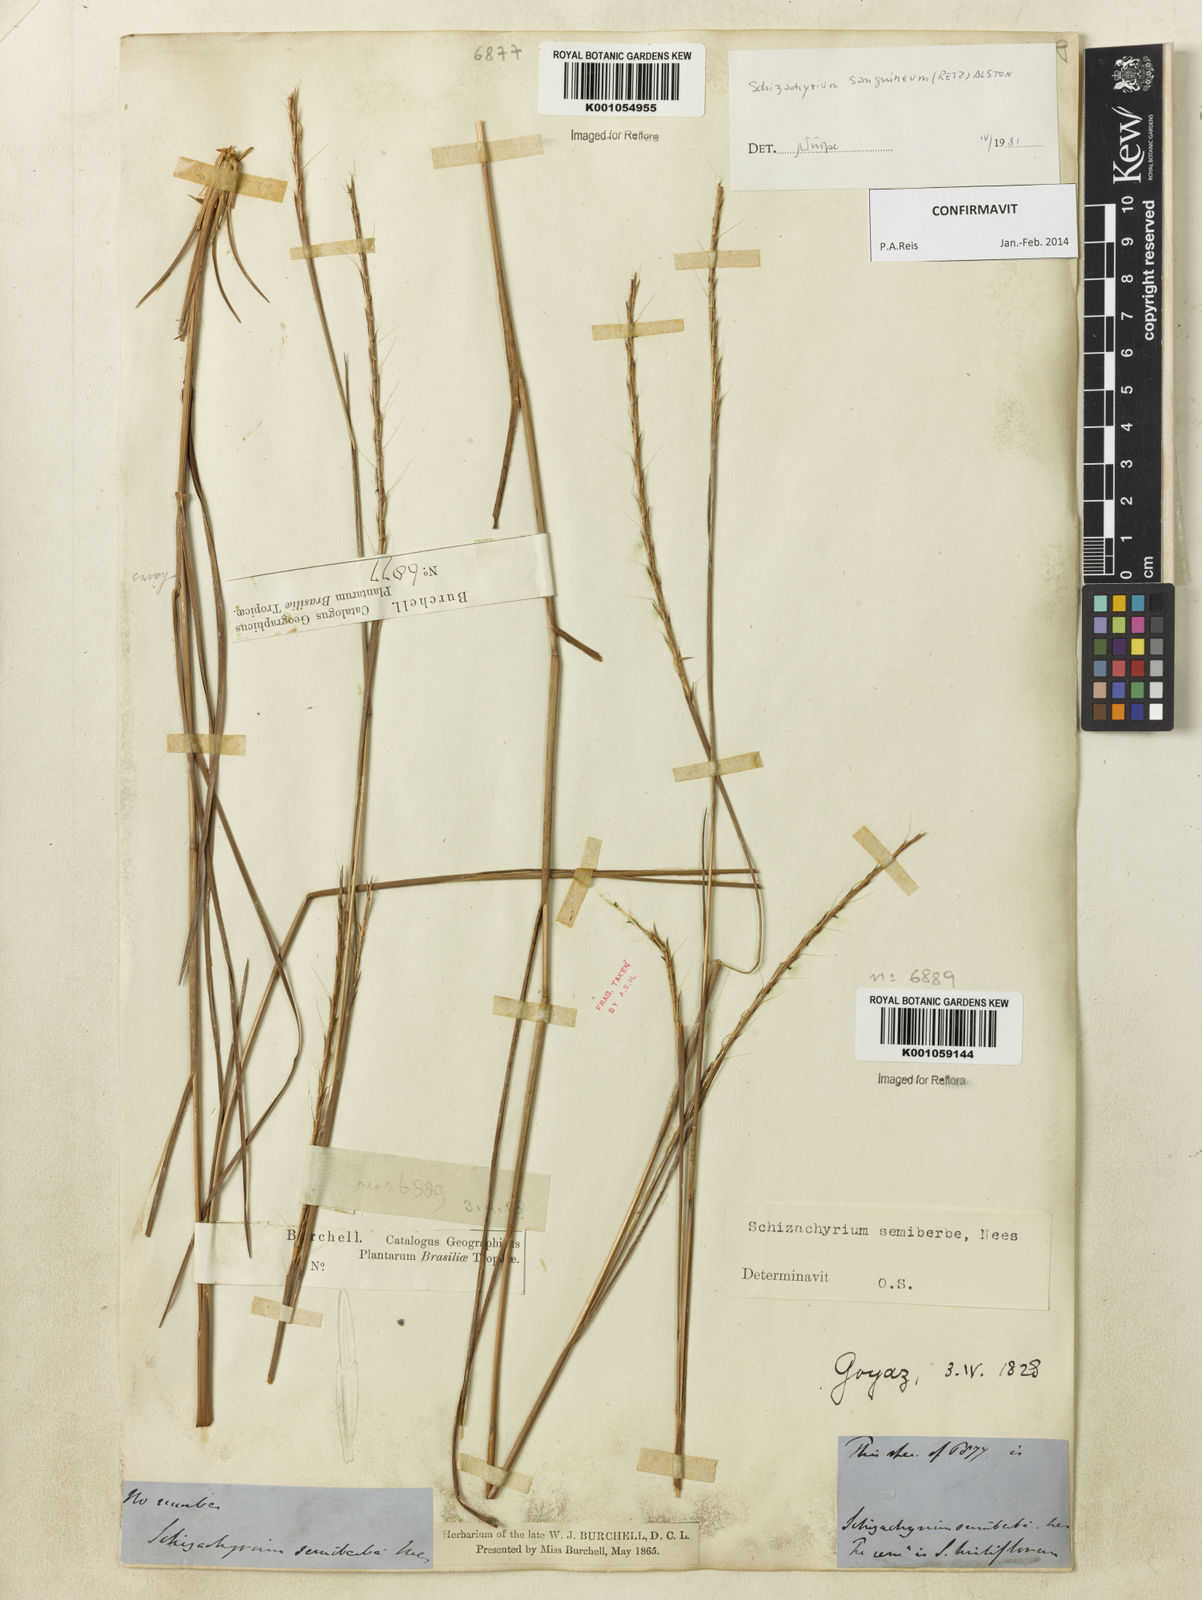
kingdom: Plantae
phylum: Tracheophyta
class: Liliopsida
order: Poales
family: Poaceae
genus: Schizachyrium
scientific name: Schizachyrium sanguineum
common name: Crimson bluestem
